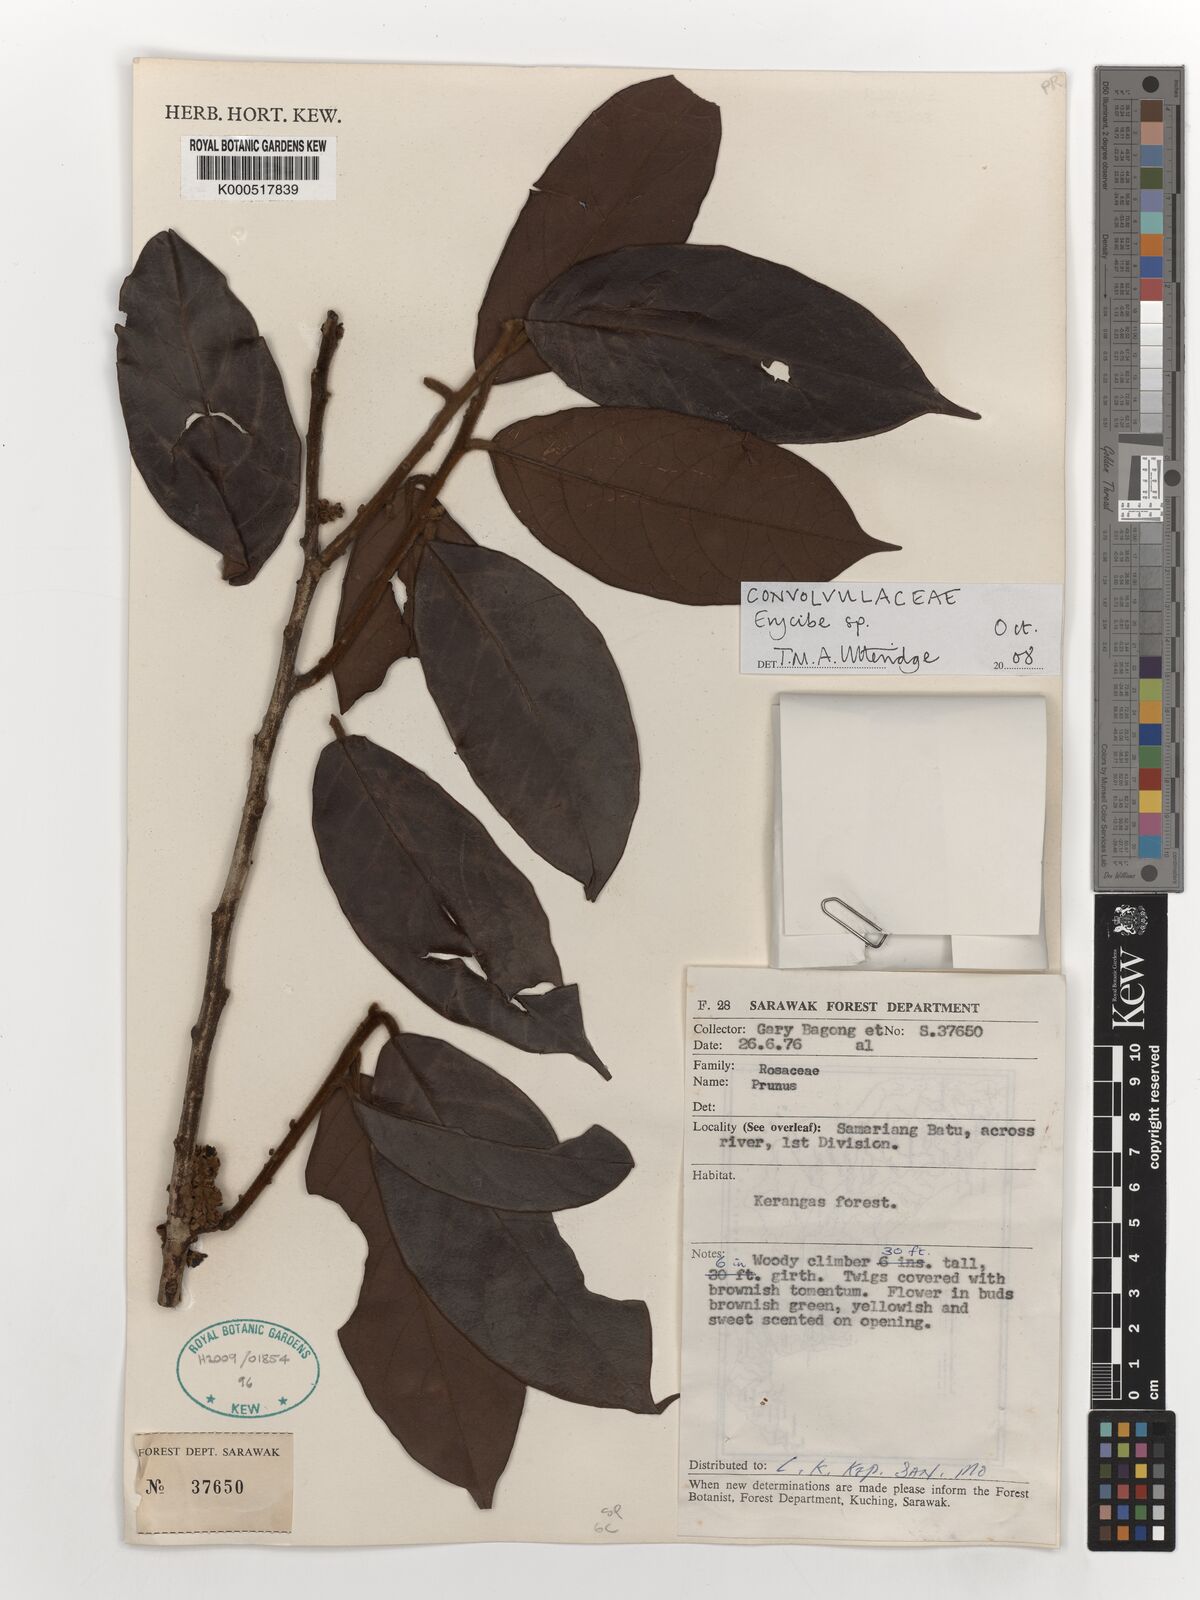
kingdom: Plantae
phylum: Tracheophyta
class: Magnoliopsida
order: Solanales
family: Convolvulaceae
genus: Erycibe
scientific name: Erycibe
